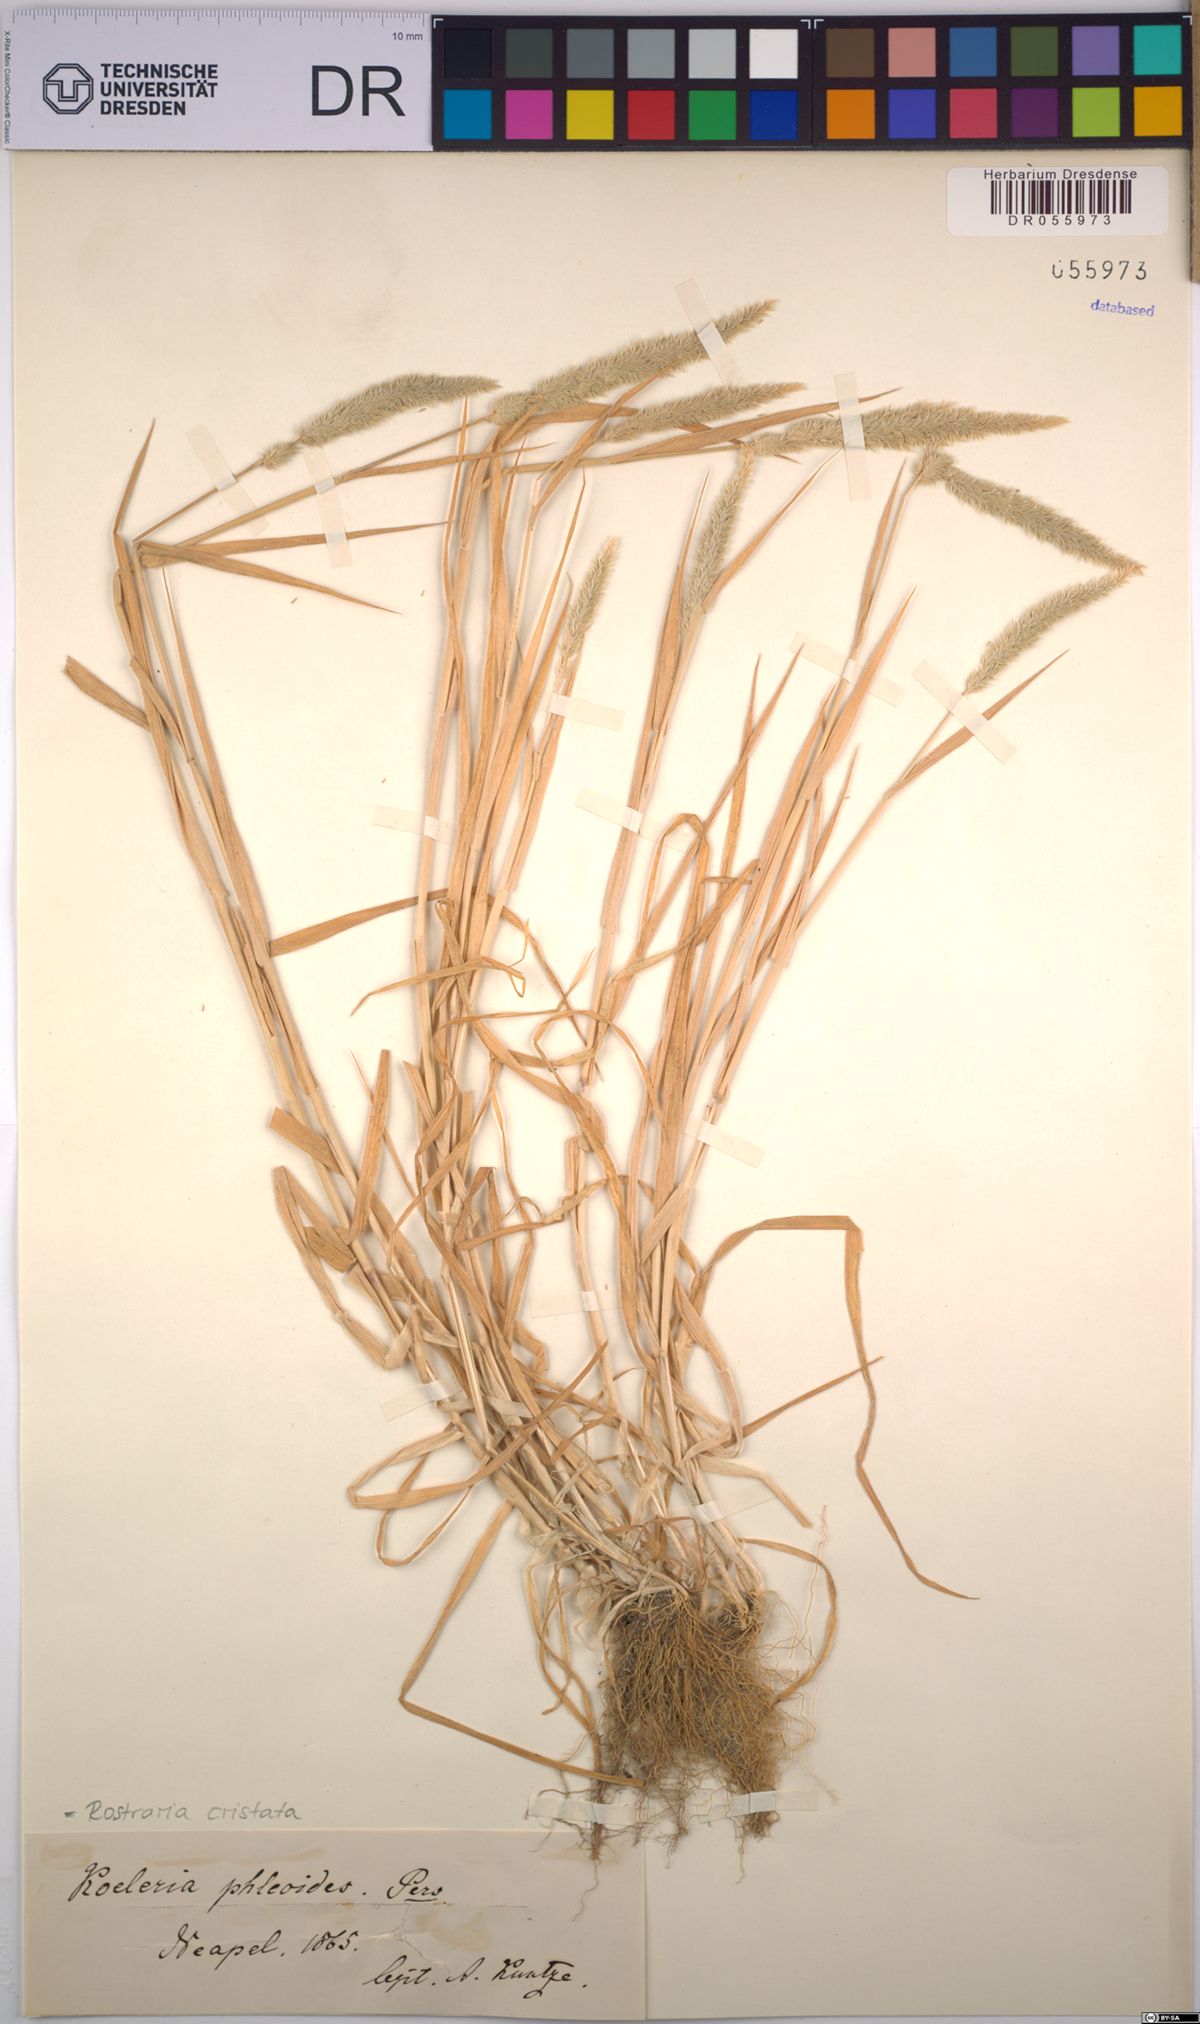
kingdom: Plantae
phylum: Tracheophyta
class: Liliopsida
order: Poales
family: Poaceae
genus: Rostraria
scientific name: Rostraria cristata
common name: Mediterranean hair-grass
